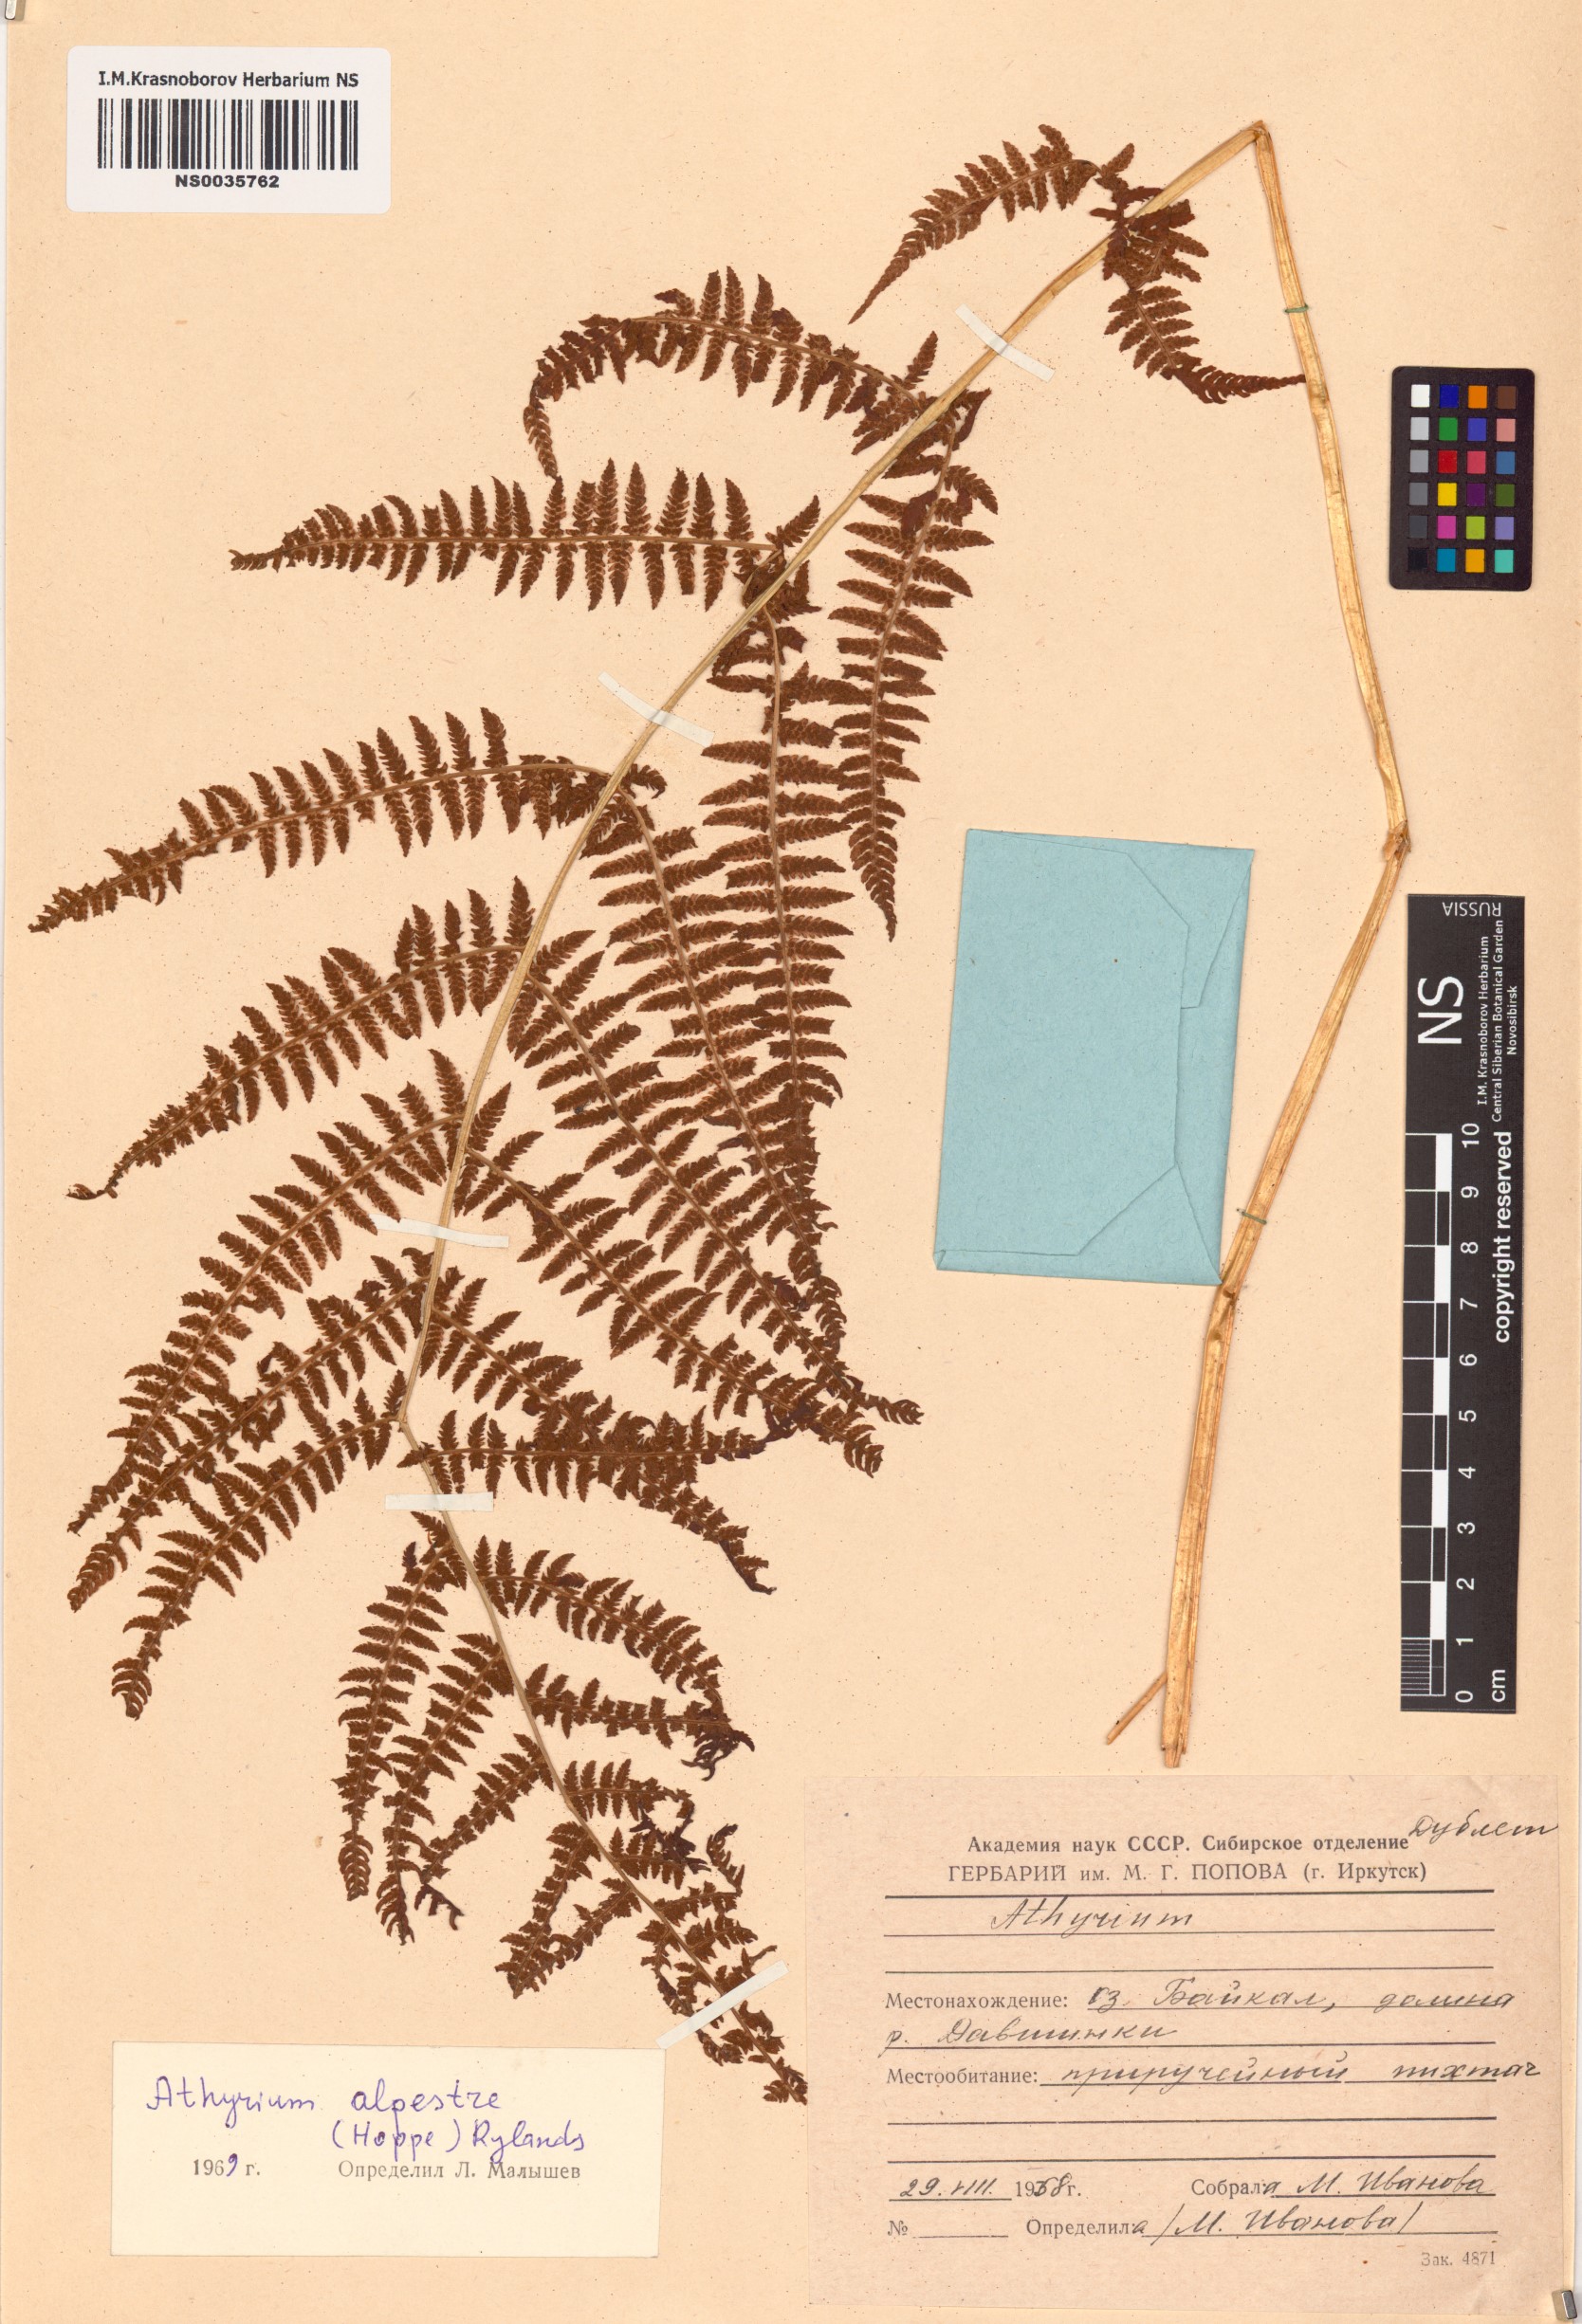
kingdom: Plantae
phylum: Tracheophyta
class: Polypodiopsida
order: Polypodiales
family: Athyriaceae
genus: Pseudathyrium
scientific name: Pseudathyrium alpestre
